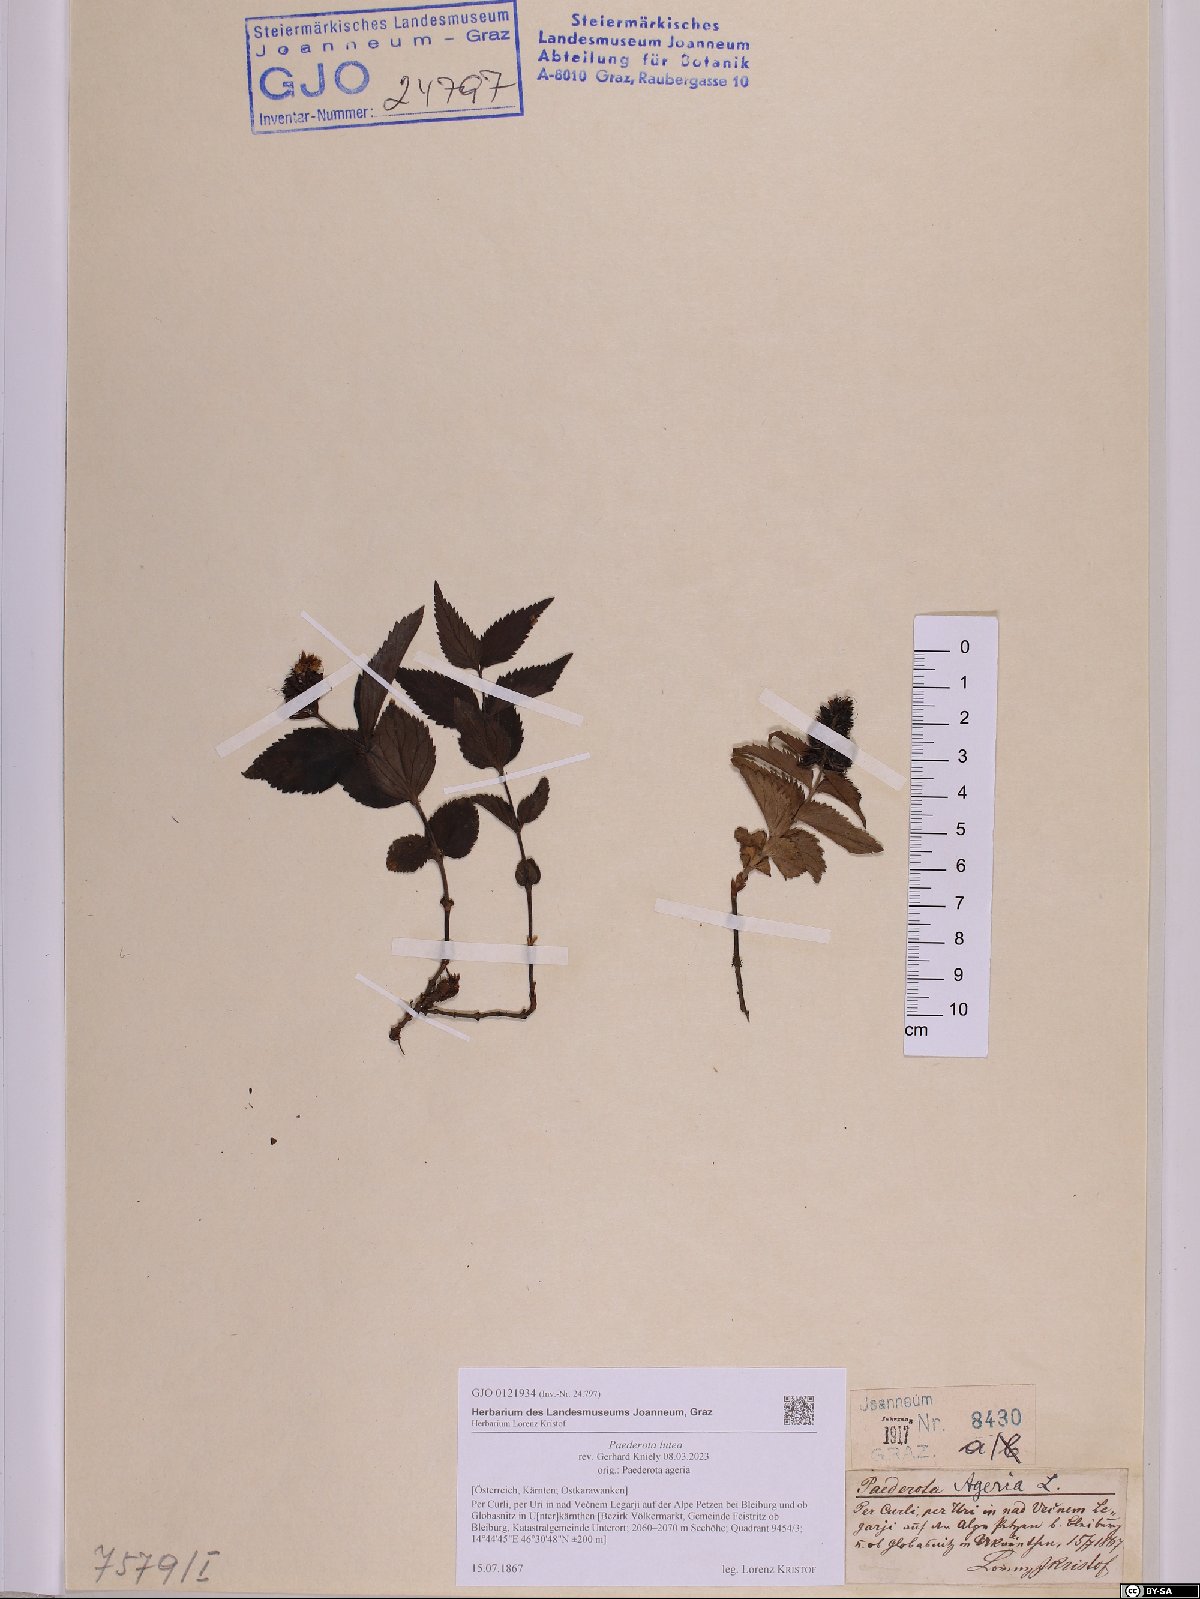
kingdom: Plantae
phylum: Tracheophyta
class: Magnoliopsida
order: Lamiales
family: Plantaginaceae
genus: Paederota
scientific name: Paederota lutea
